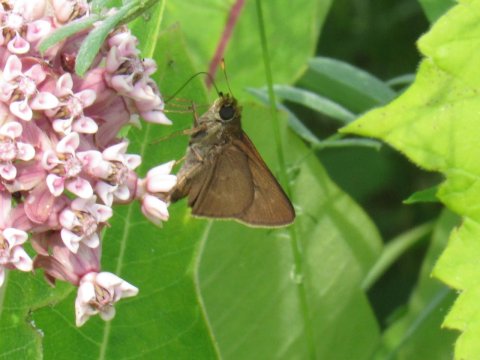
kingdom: Animalia
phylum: Arthropoda
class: Insecta
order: Lepidoptera
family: Hesperiidae
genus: Euphyes
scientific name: Euphyes vestris
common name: Dun Skipper
